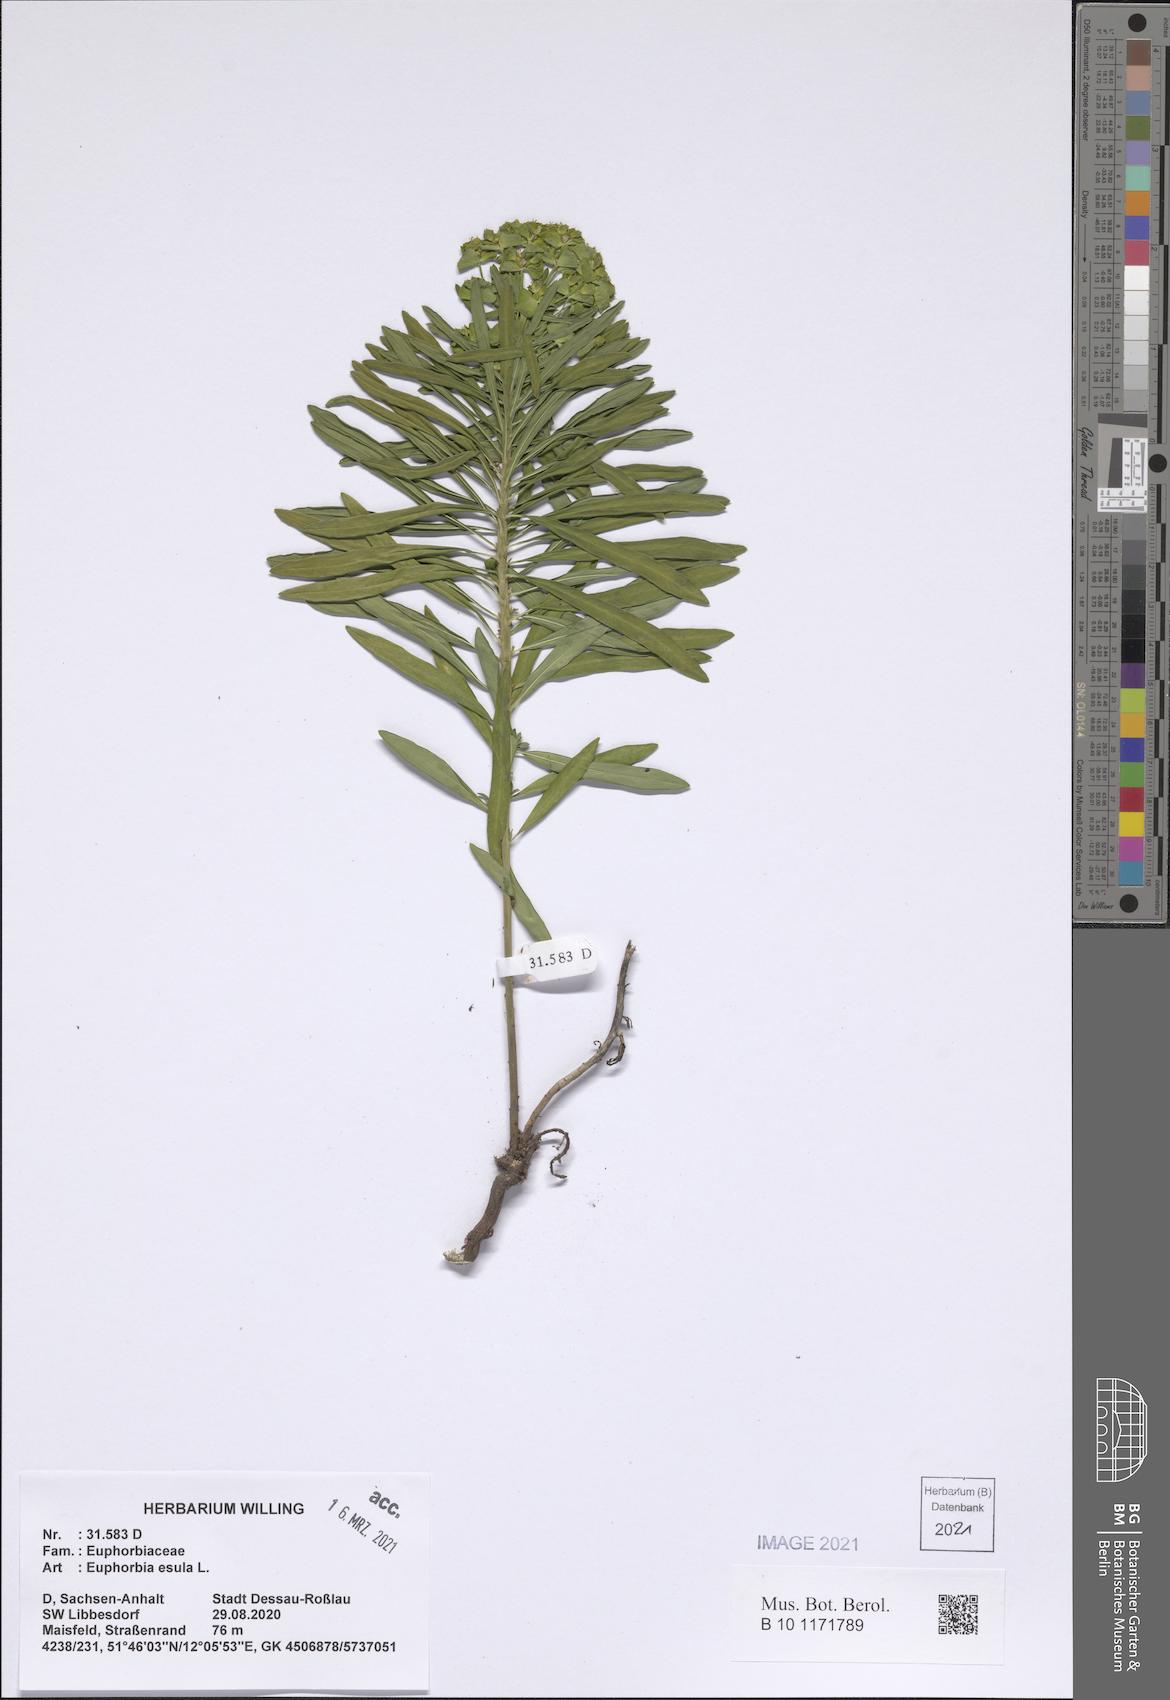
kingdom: Plantae
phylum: Tracheophyta
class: Magnoliopsida
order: Malpighiales
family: Euphorbiaceae
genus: Euphorbia
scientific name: Euphorbia esula
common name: Leafy spurge
